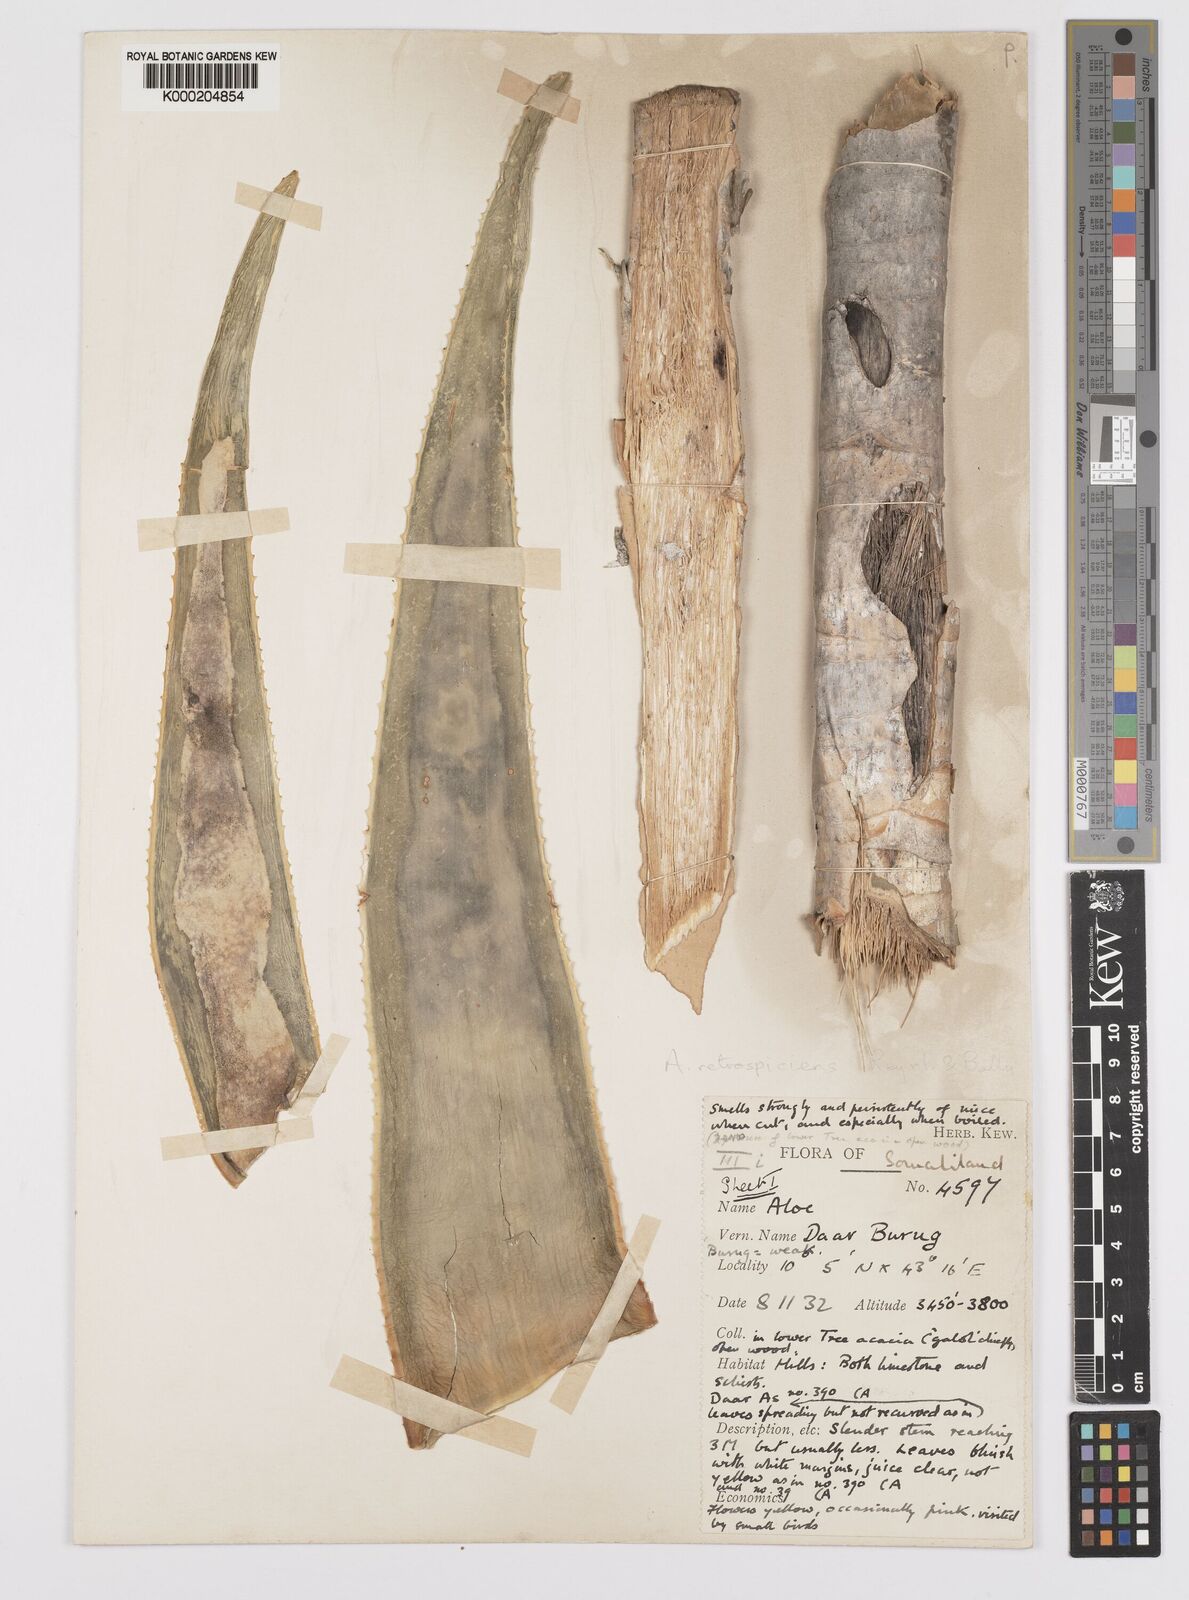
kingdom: Plantae
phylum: Tracheophyta
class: Liliopsida
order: Asparagales
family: Asphodelaceae
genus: Aloe
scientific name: Aloe retrospiciens
